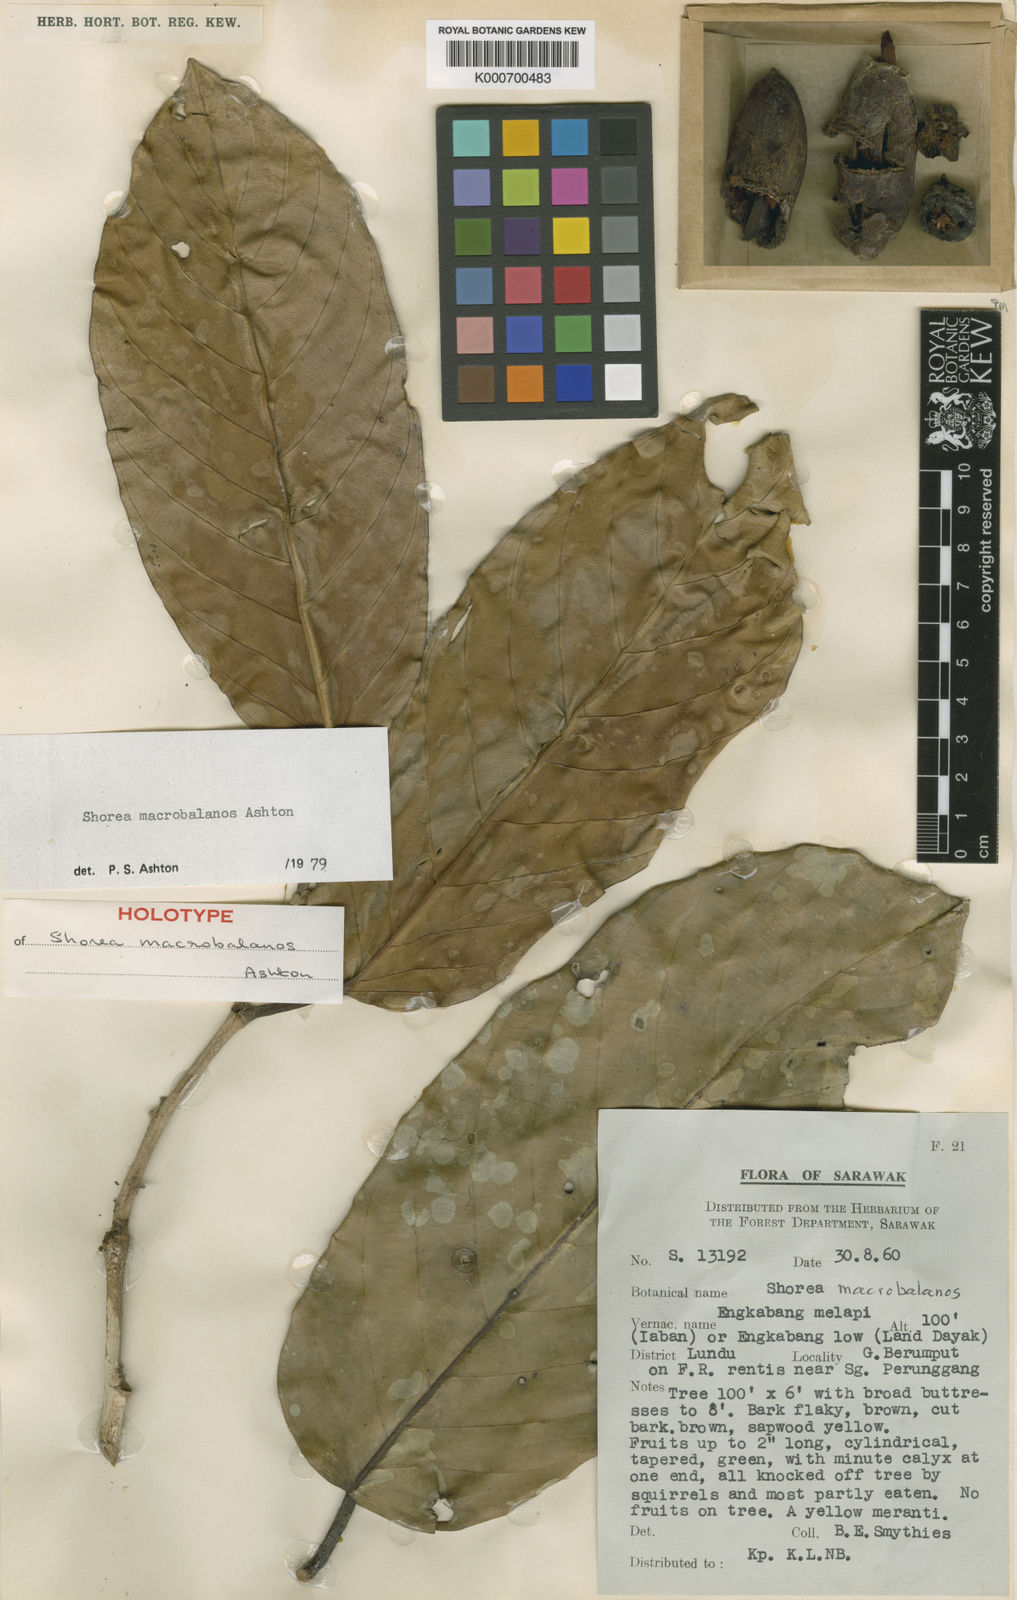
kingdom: Plantae
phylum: Tracheophyta
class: Magnoliopsida
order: Malvales
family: Dipterocarpaceae
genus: Shorea
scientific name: Shorea macrobalanos
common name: Yellow meranti
